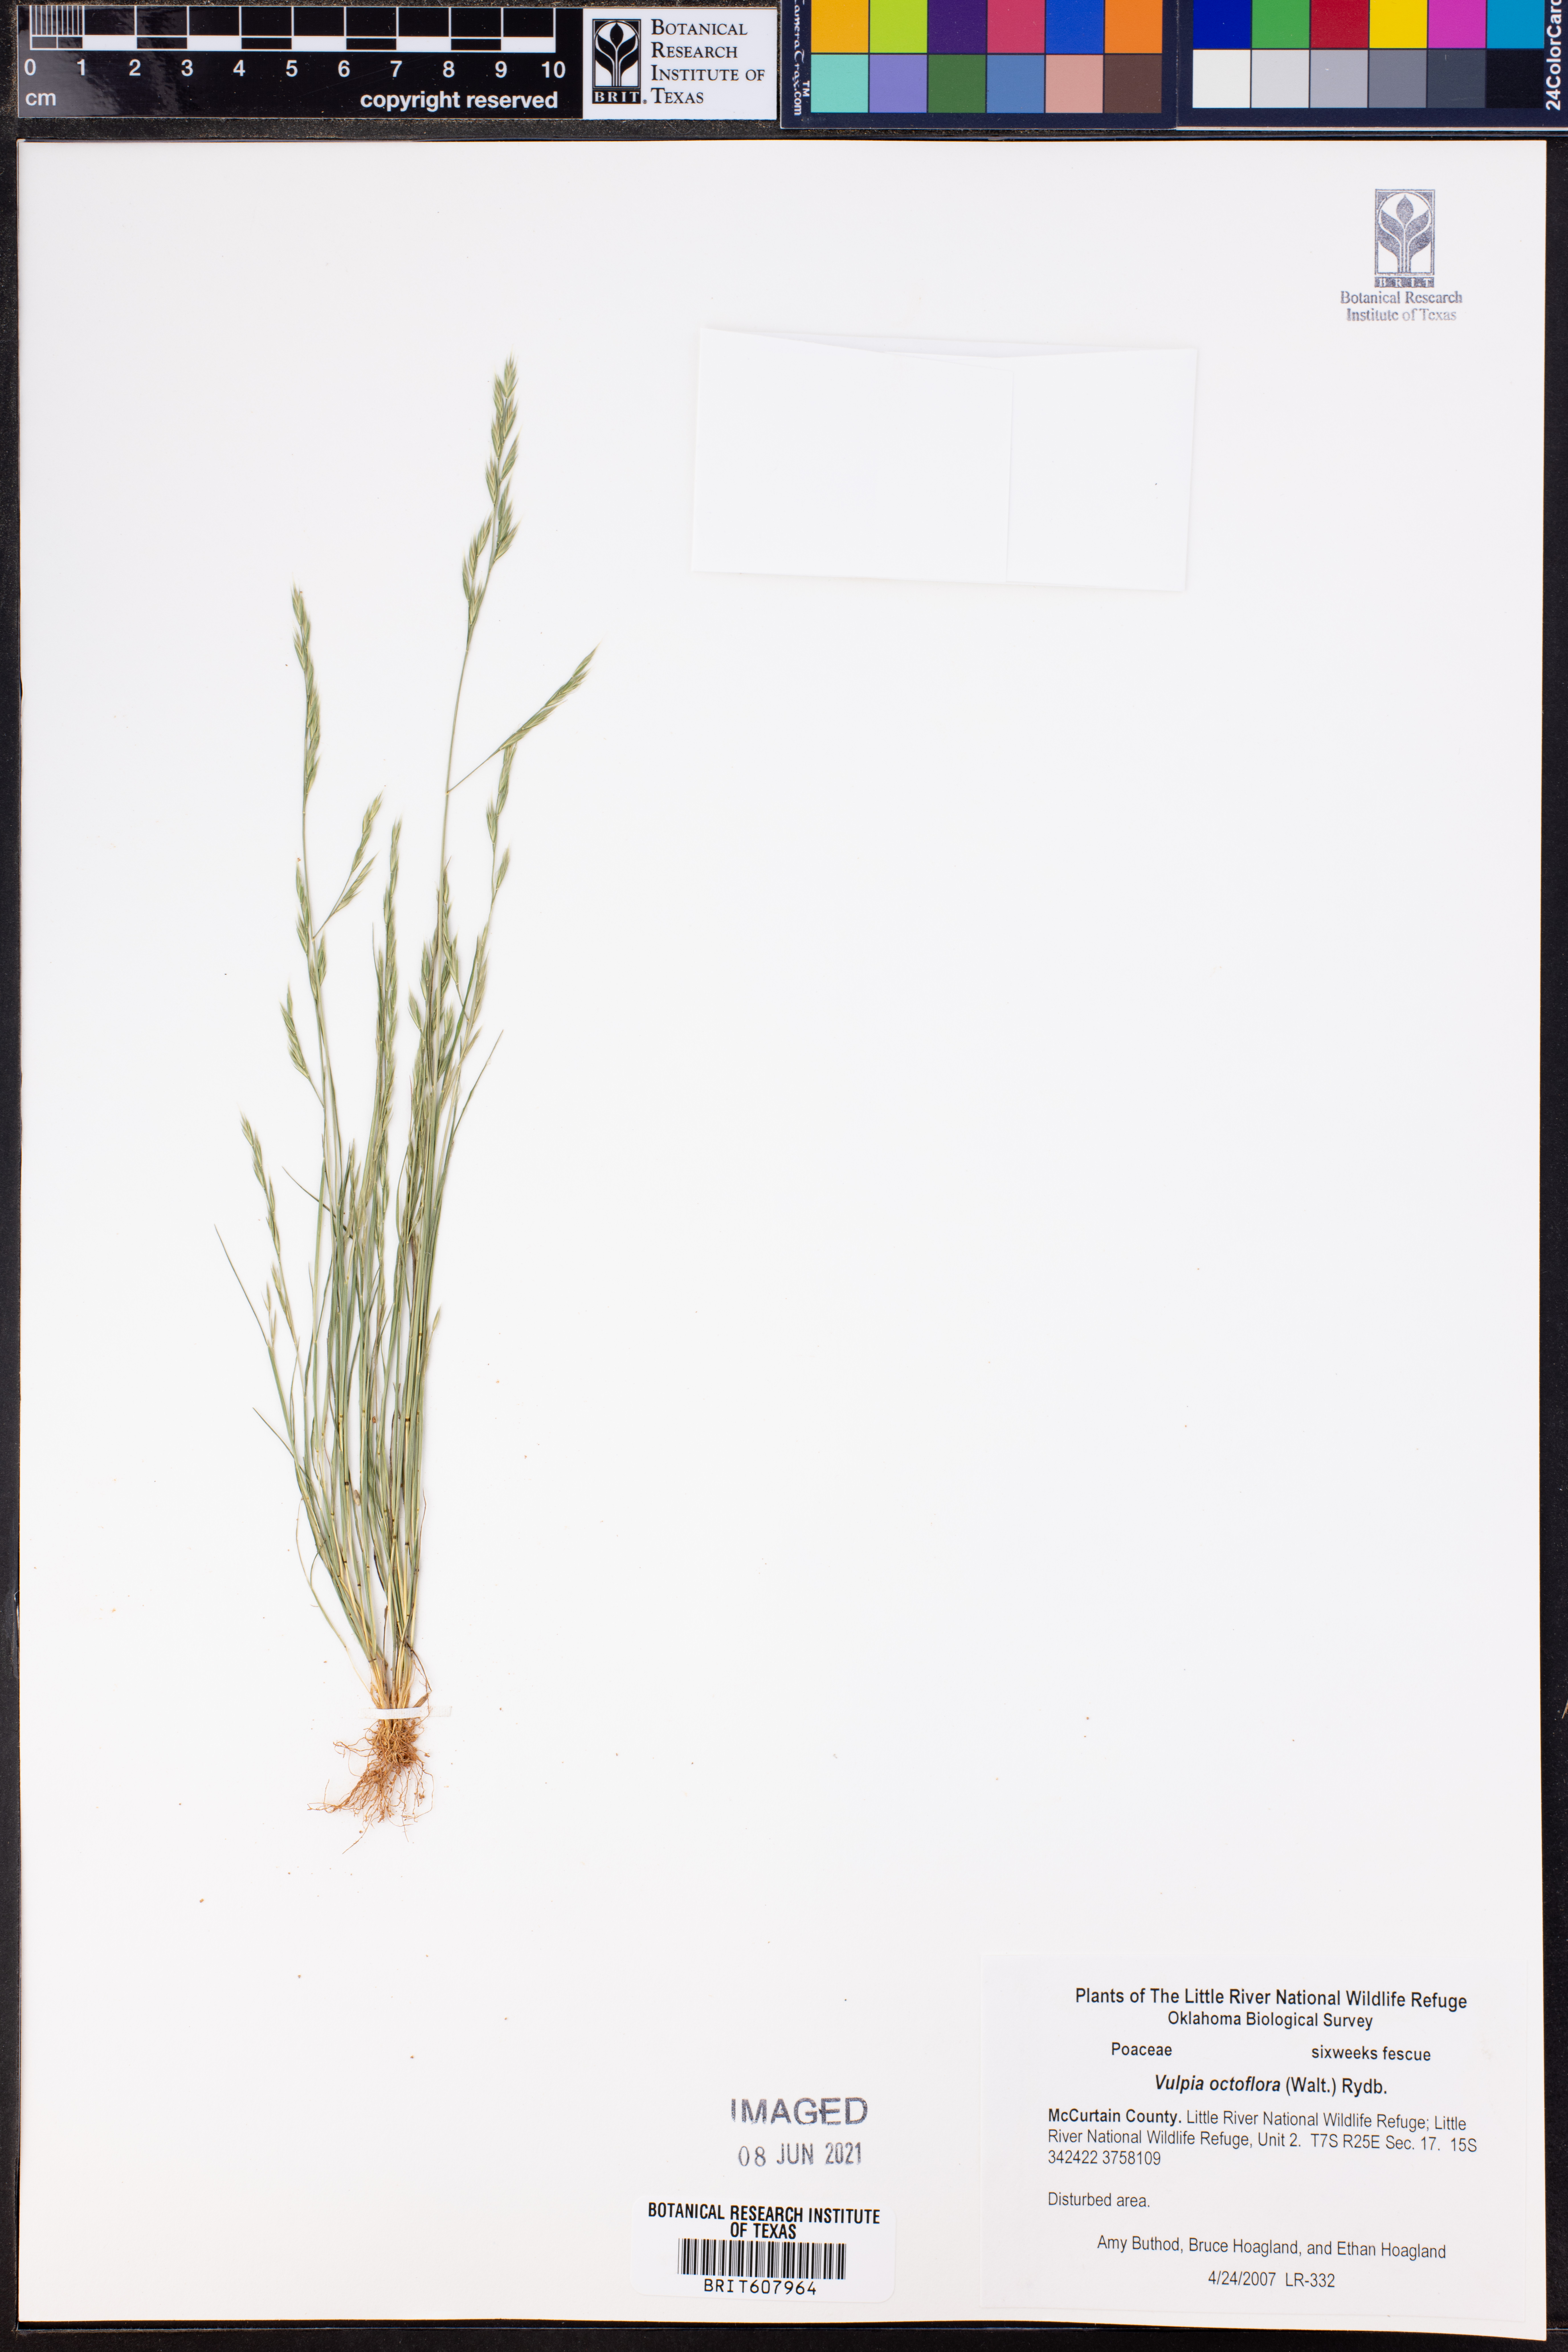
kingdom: Plantae
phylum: Tracheophyta
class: Liliopsida
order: Poales
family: Poaceae
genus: Festuca
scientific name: Festuca octoflora
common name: Sixweeks grass
